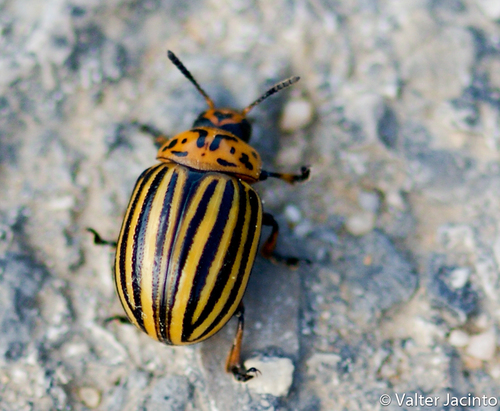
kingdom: Animalia
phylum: Arthropoda
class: Insecta
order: Coleoptera
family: Chrysomelidae
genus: Leptinotarsa
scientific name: Leptinotarsa decemlineata
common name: Colorado potato beetle
